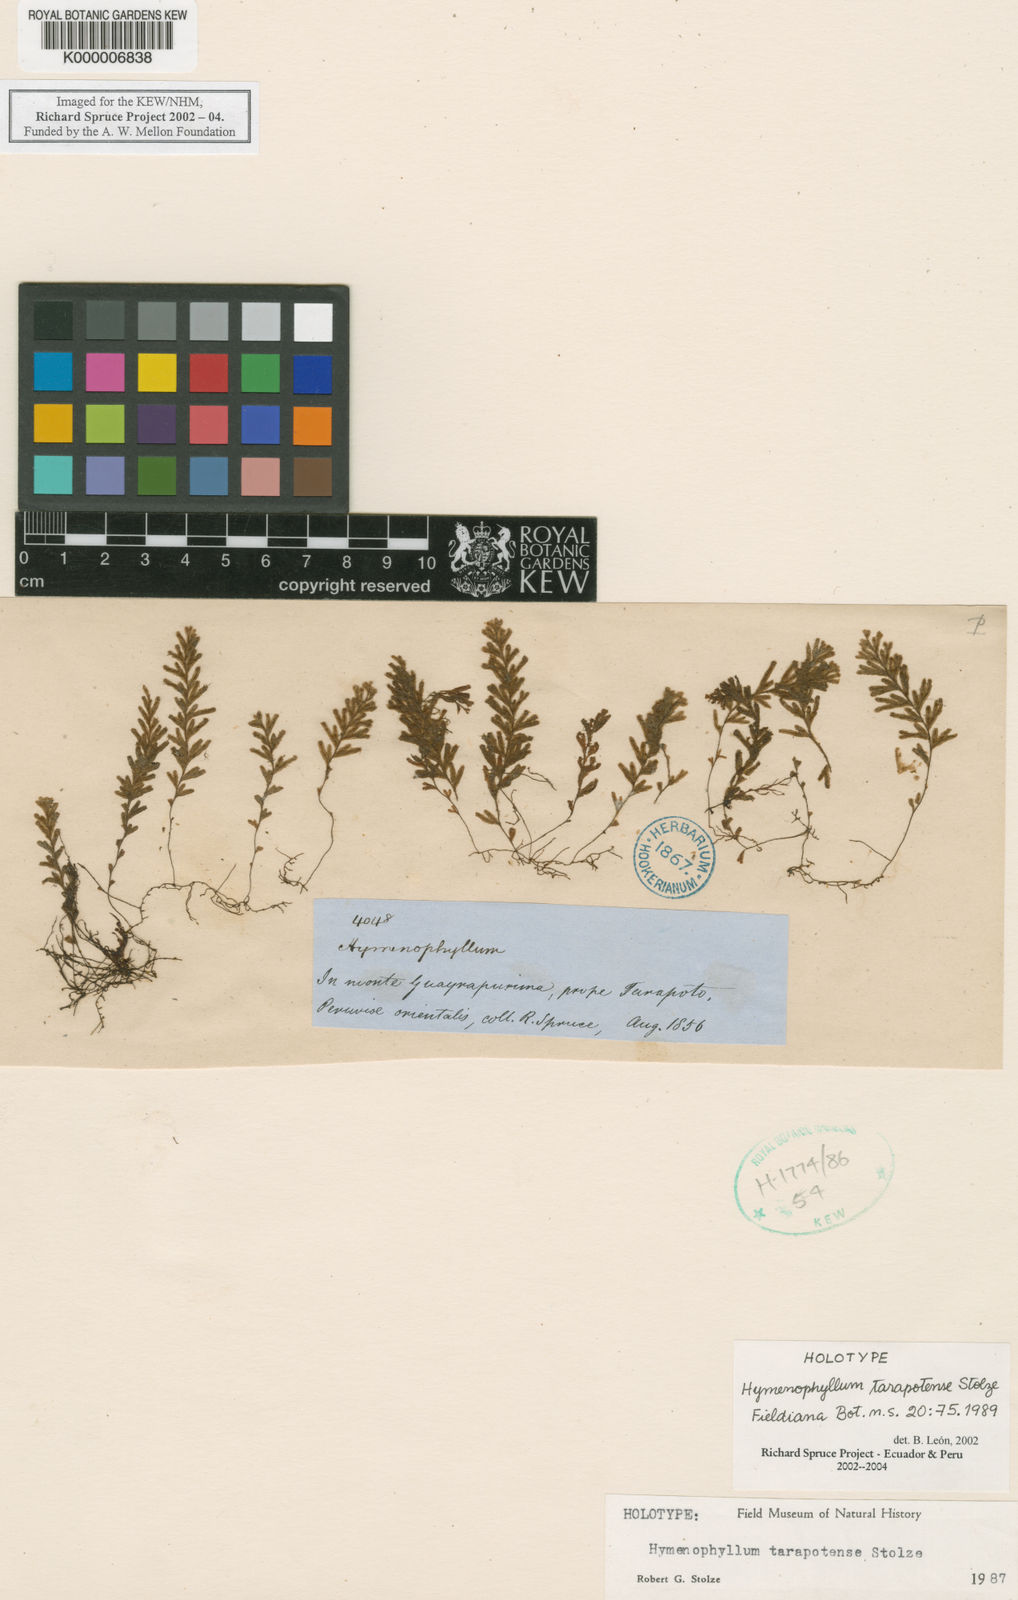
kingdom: Plantae
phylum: Tracheophyta
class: Polypodiopsida
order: Hymenophyllales
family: Hymenophyllaceae
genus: Hymenophyllum
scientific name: Hymenophyllum tarapotense
